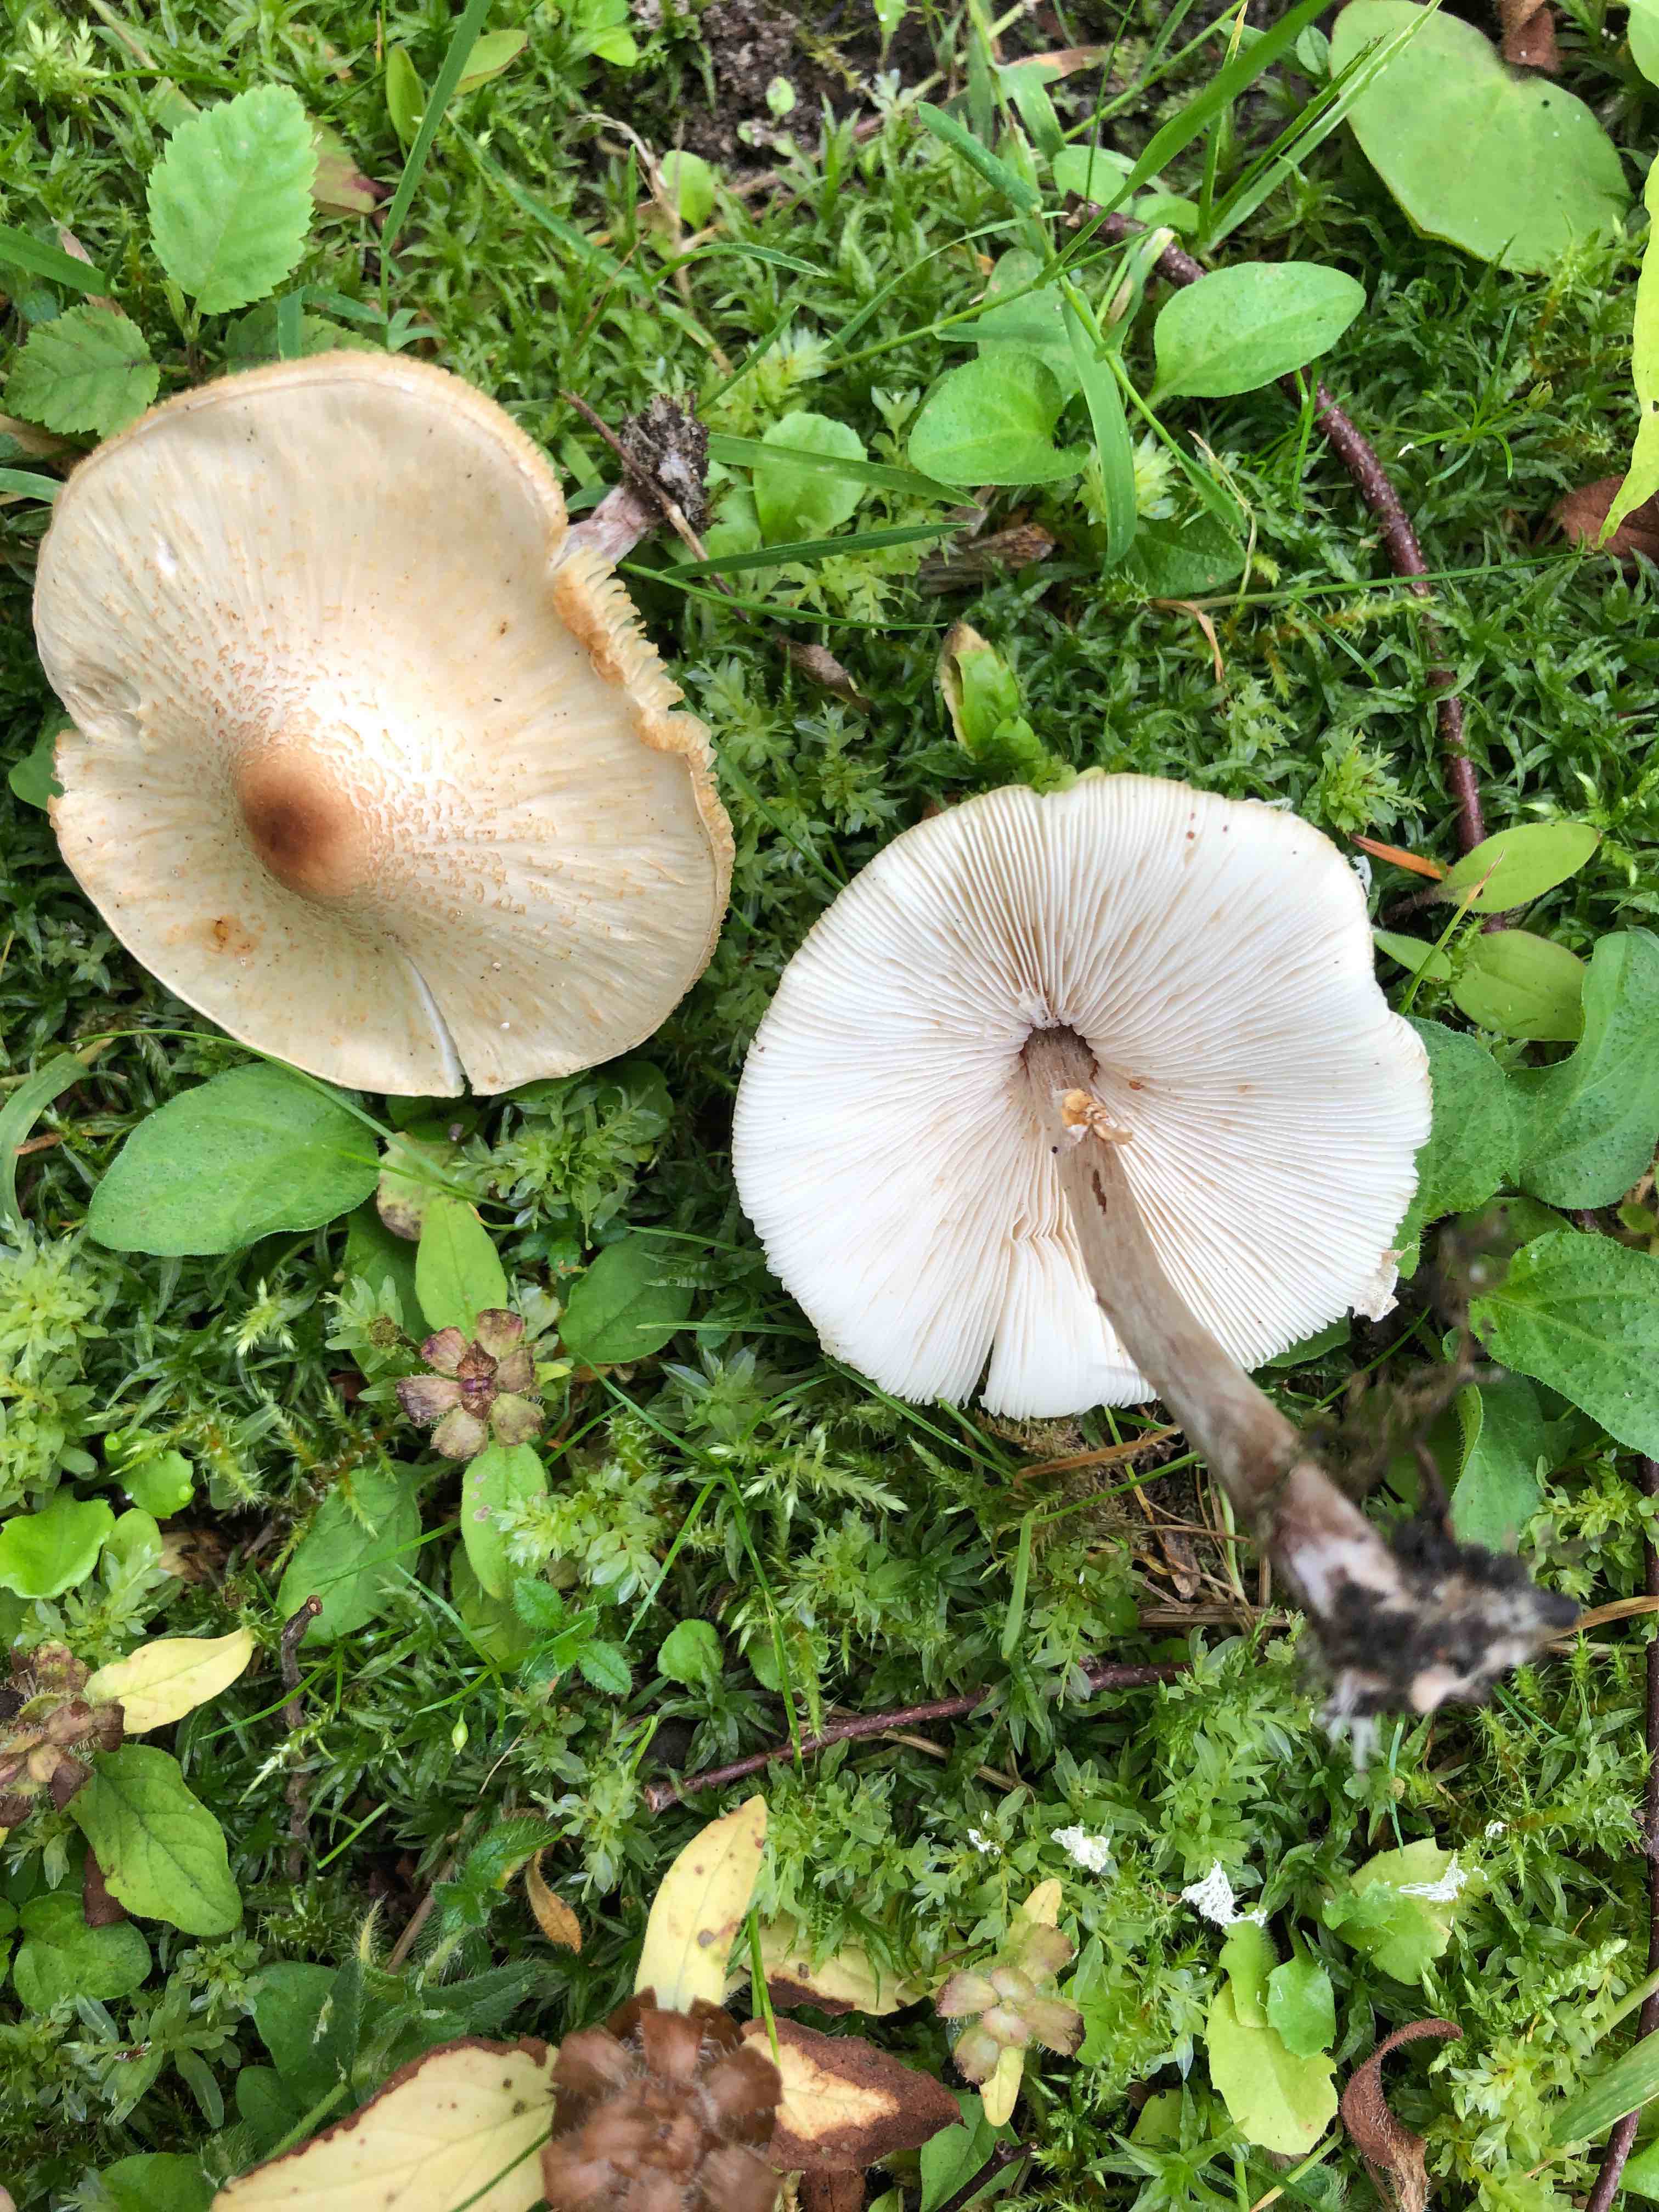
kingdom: Fungi
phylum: Basidiomycota
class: Agaricomycetes
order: Agaricales
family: Agaricaceae
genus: Lepiota
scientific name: Lepiota cristata
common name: stinkende parasolhat
